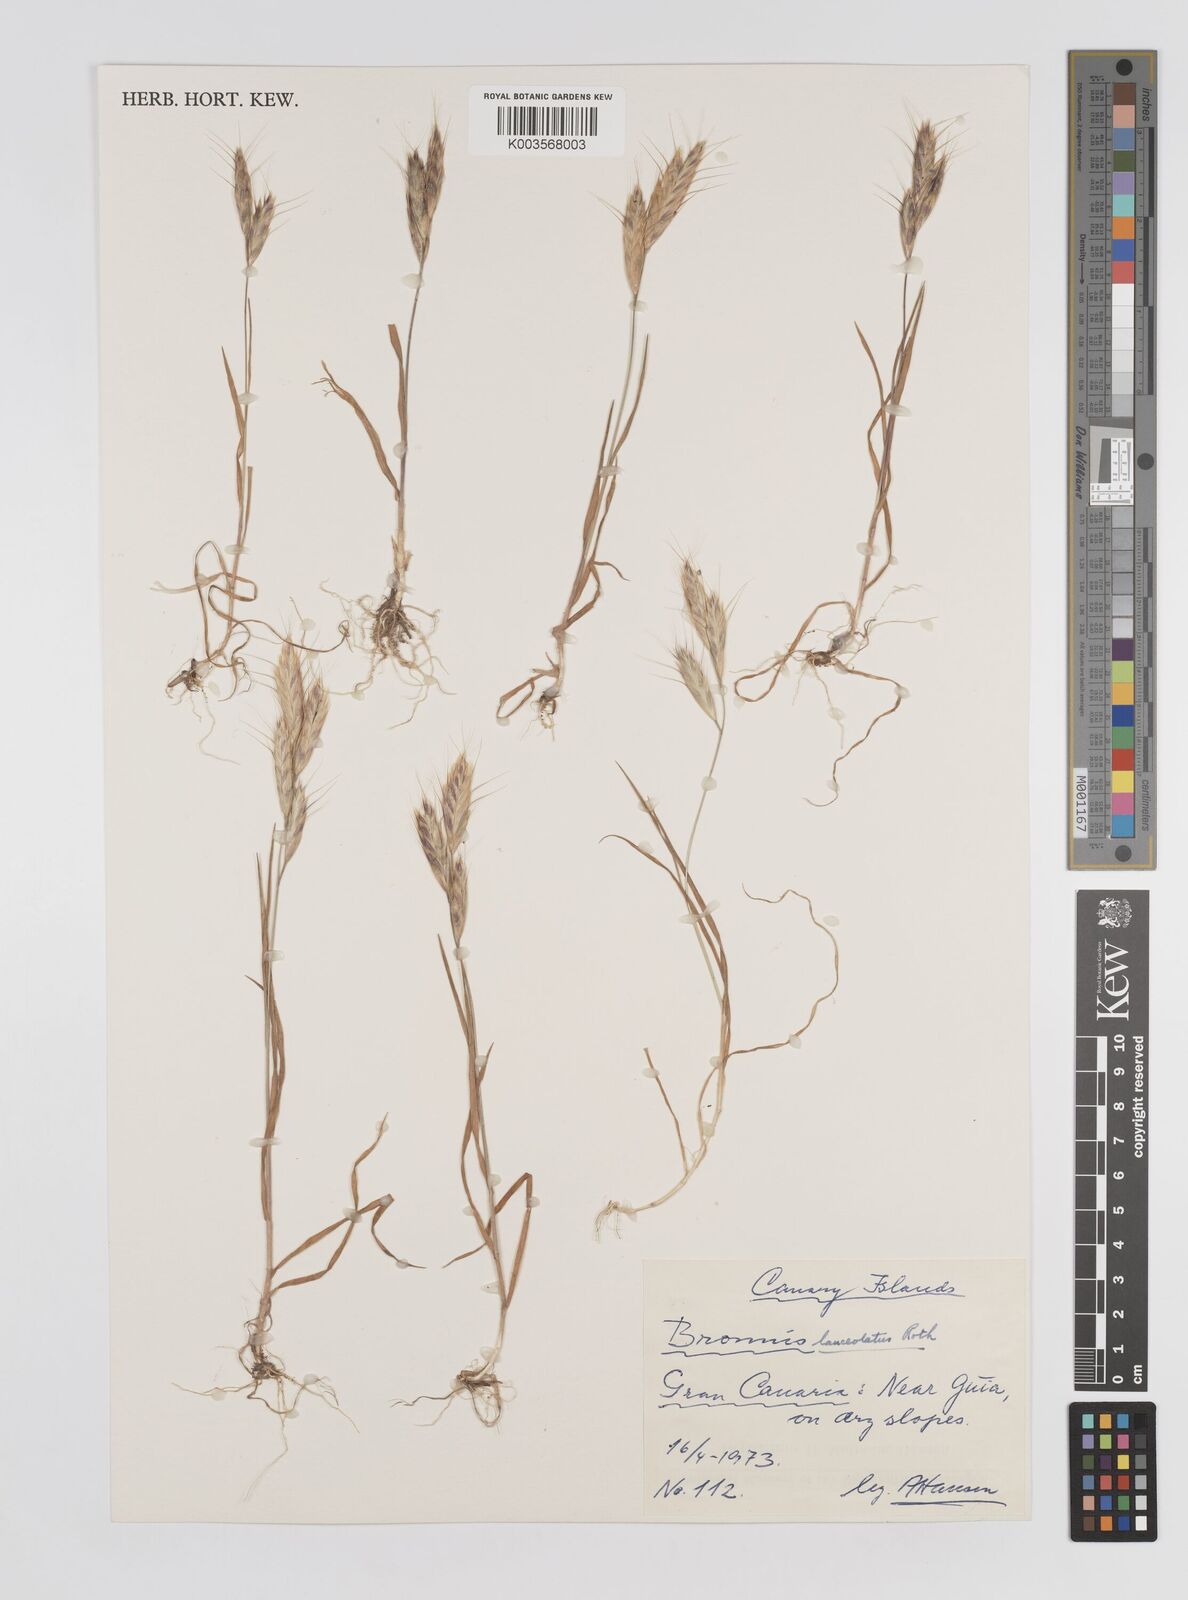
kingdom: Plantae
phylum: Tracheophyta
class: Liliopsida
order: Poales
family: Poaceae
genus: Bromus
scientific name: Bromus lanceolatus
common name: Mediterranean brome
